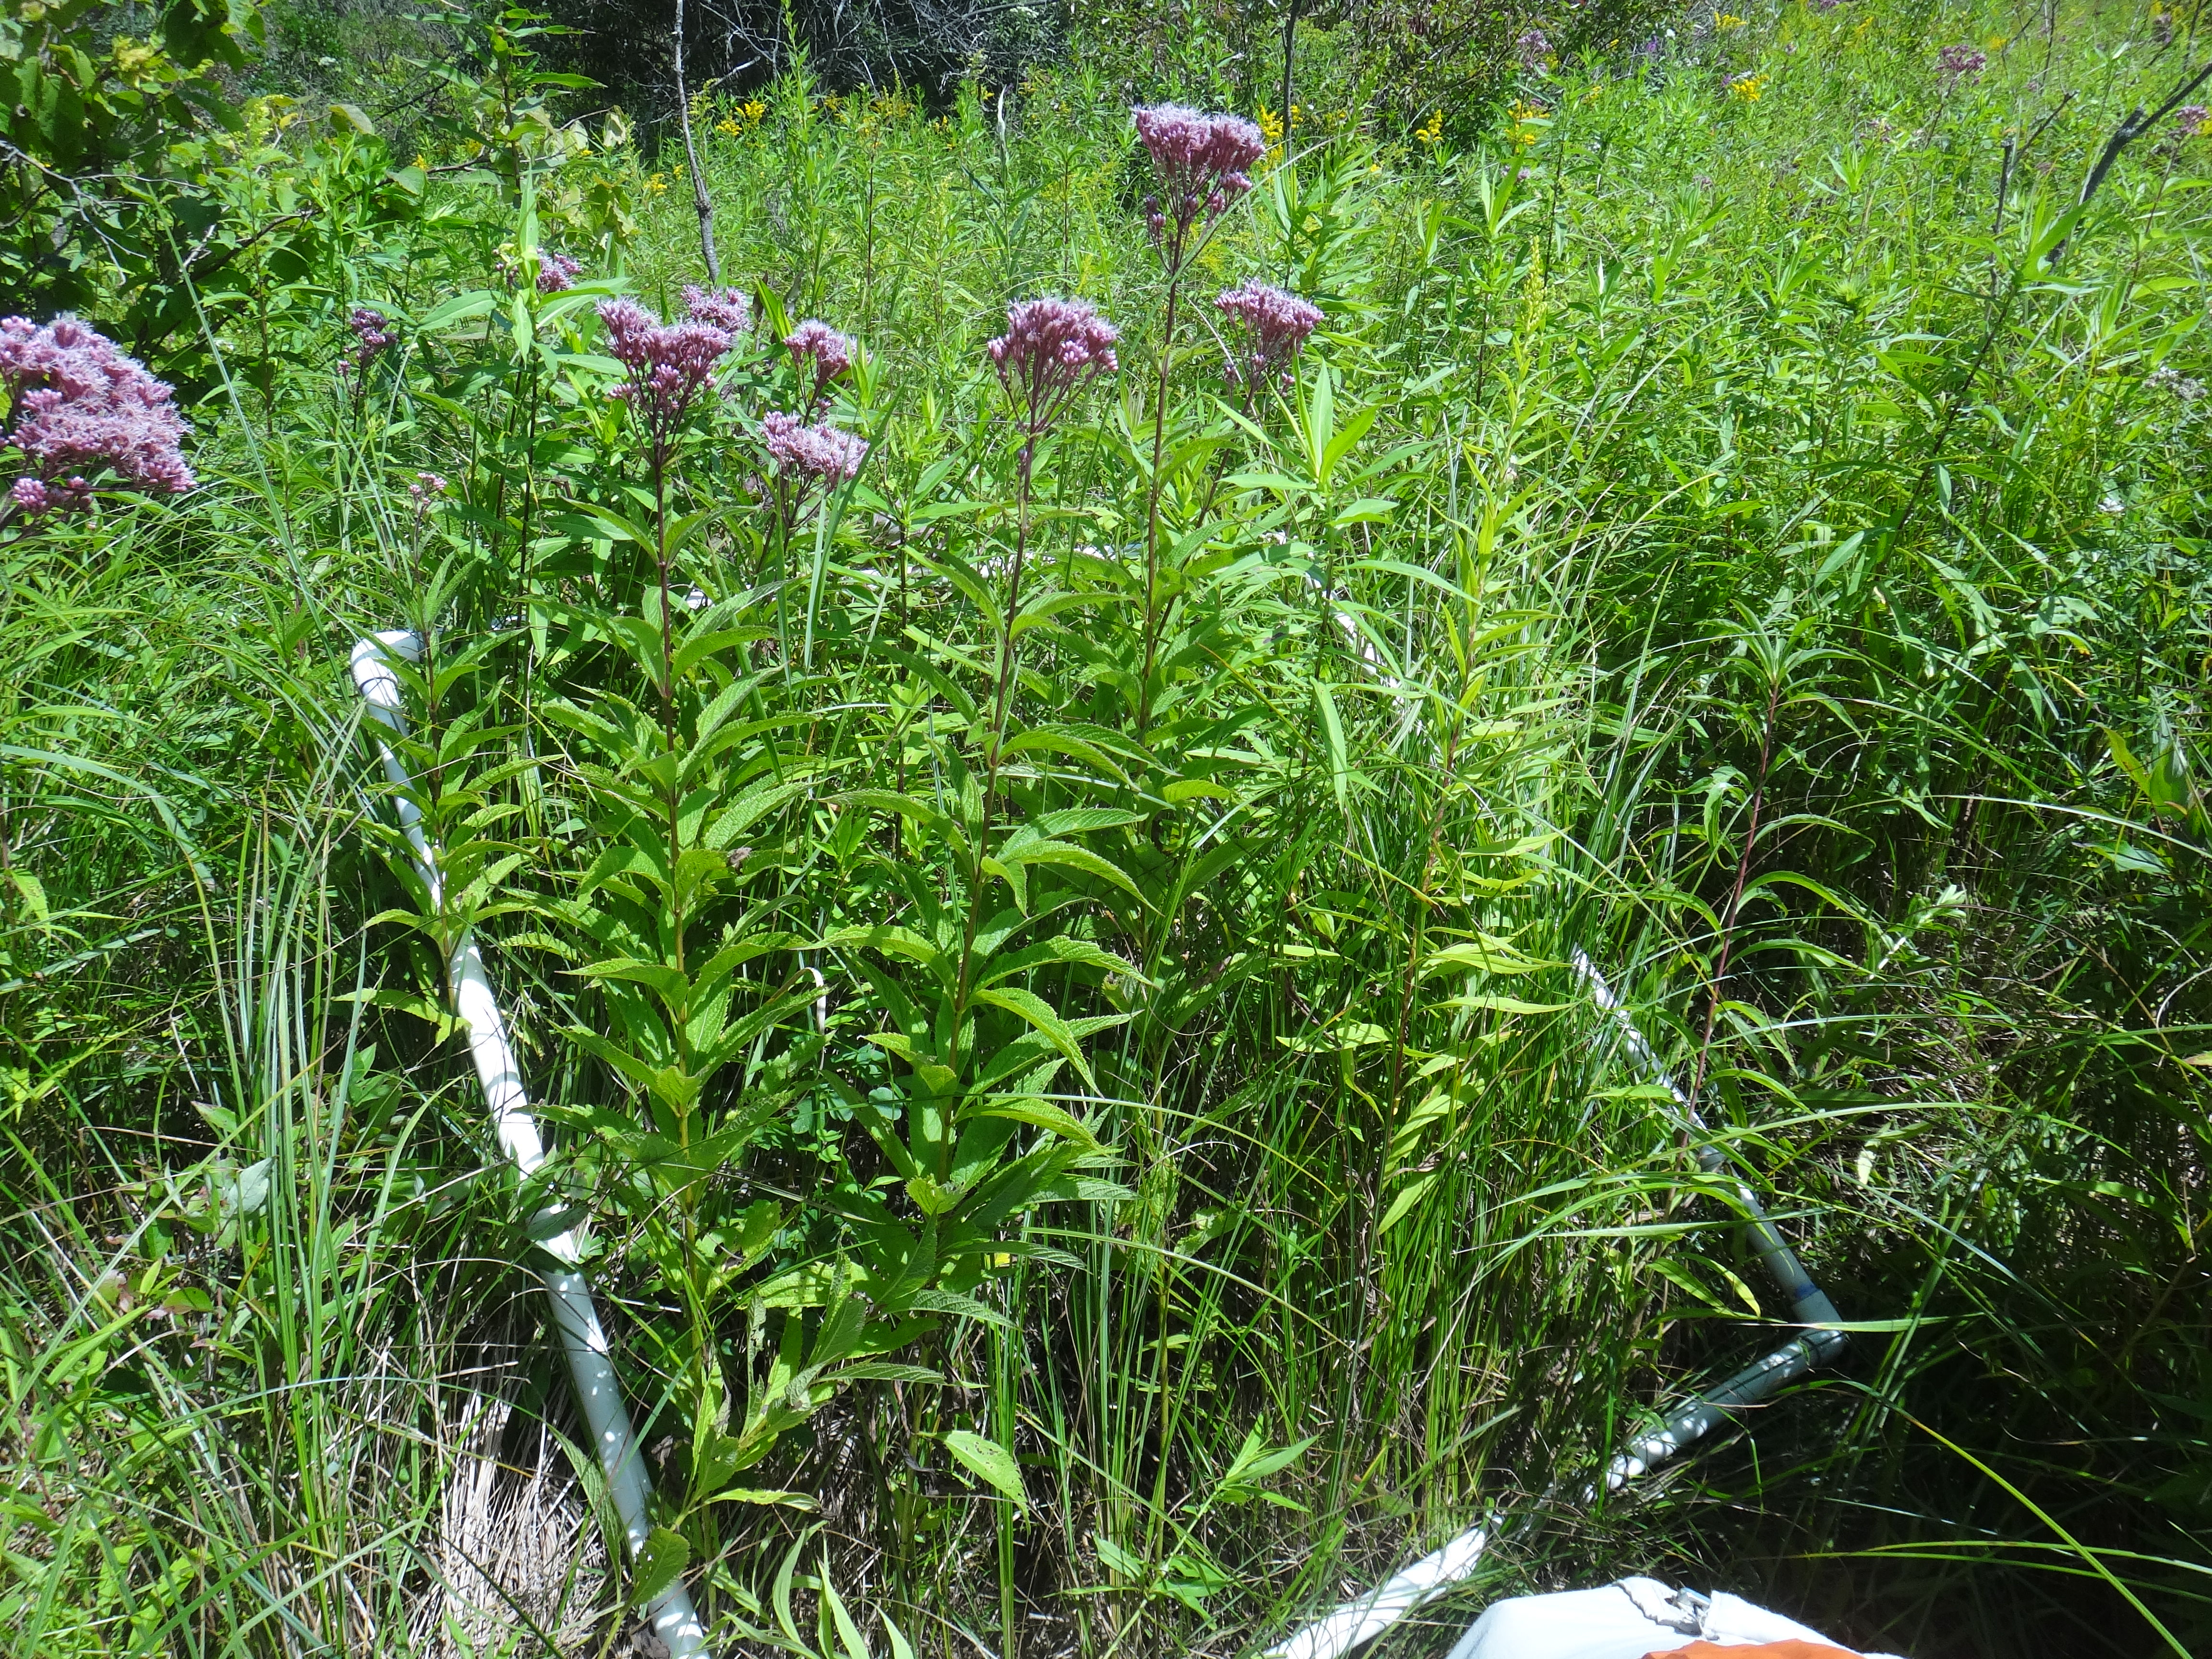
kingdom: Plantae
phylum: Tracheophyta
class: Magnoliopsida
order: Asterales
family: Asteraceae
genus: Symphyotrichum
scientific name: Symphyotrichum lanceolatum
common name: Panicled aster
